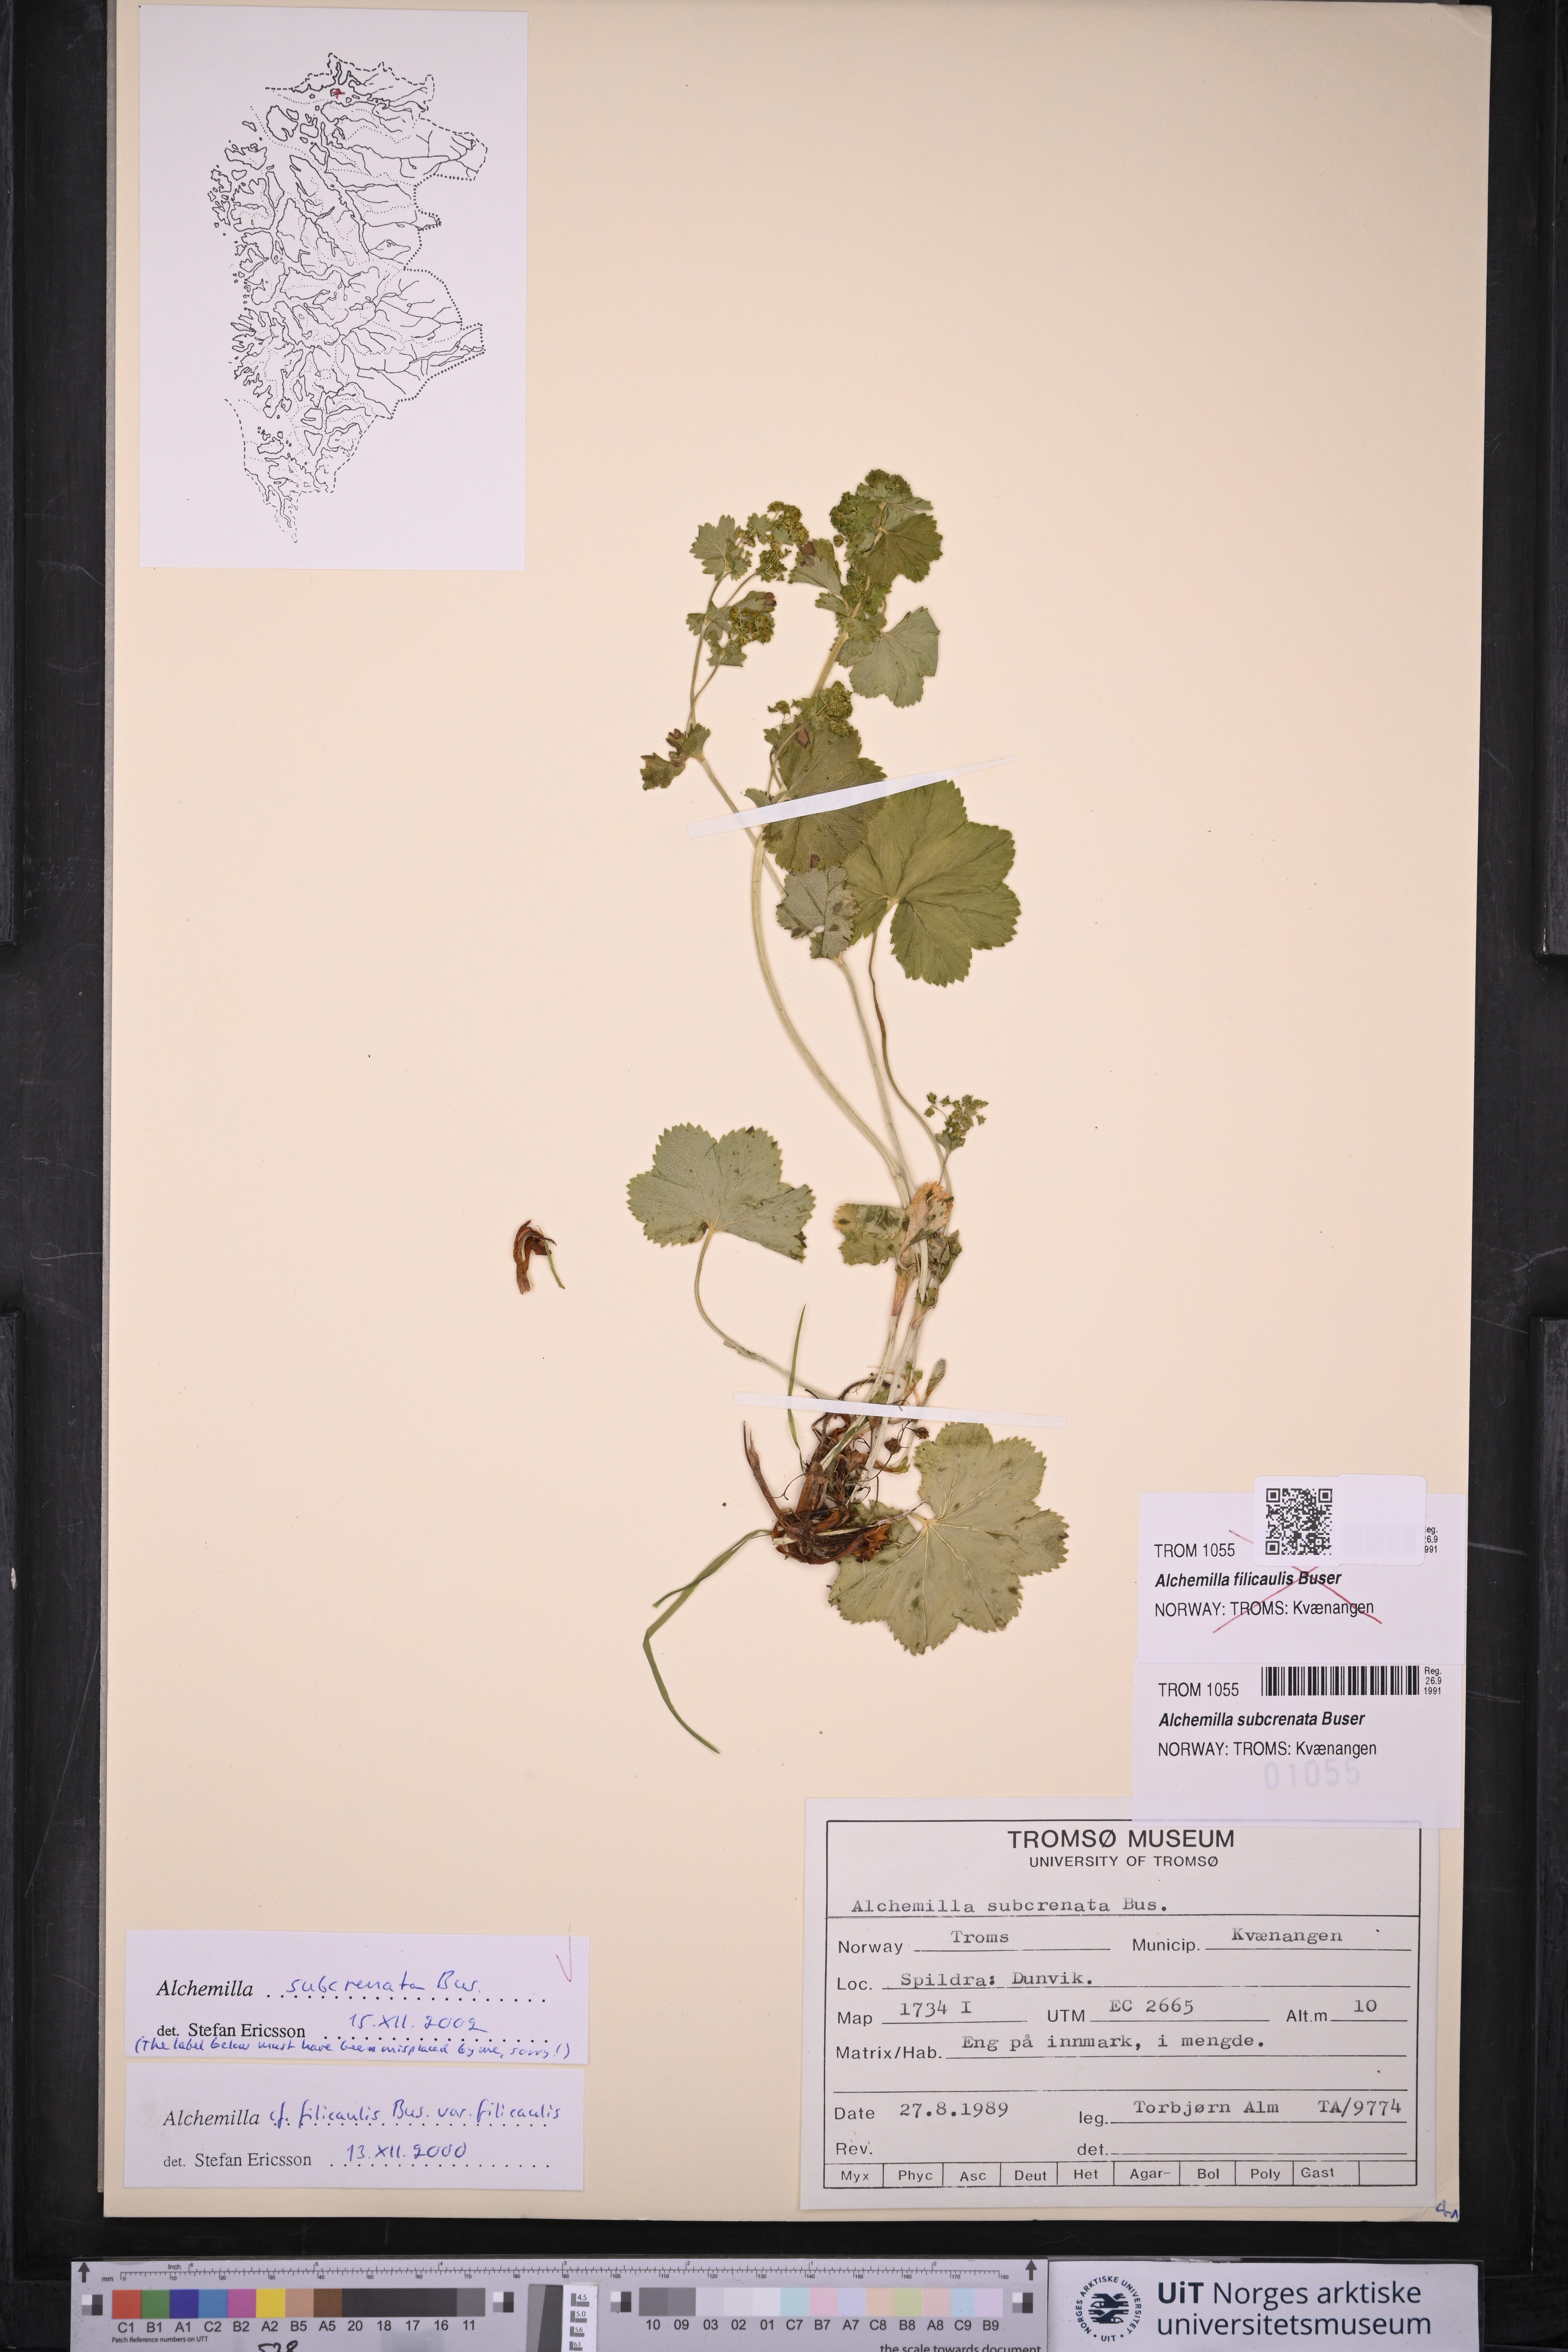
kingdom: Plantae
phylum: Tracheophyta
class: Magnoliopsida
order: Rosales
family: Rosaceae
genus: Alchemilla
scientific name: Alchemilla subcrenata
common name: Broadtooth lady's mantle
